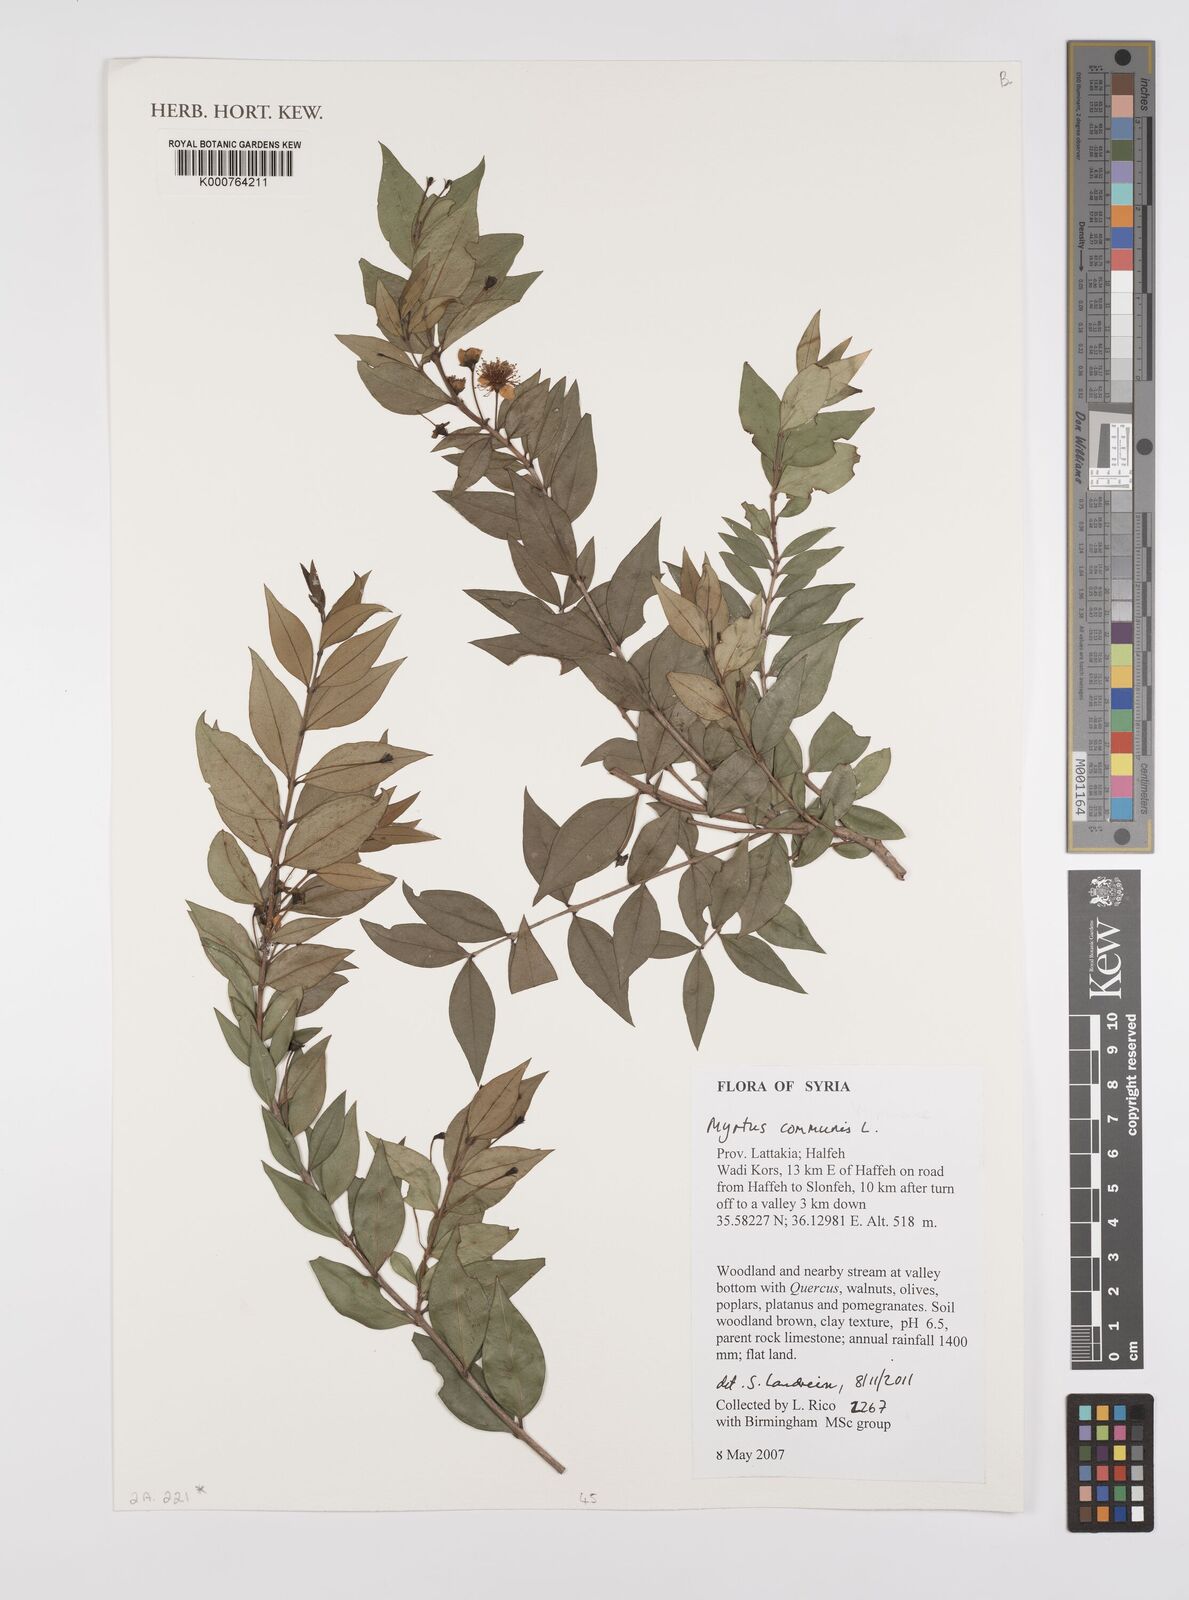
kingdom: Plantae
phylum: Tracheophyta
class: Magnoliopsida
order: Myrtales
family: Myrtaceae
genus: Myrtus
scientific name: Myrtus communis
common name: Myrtle
